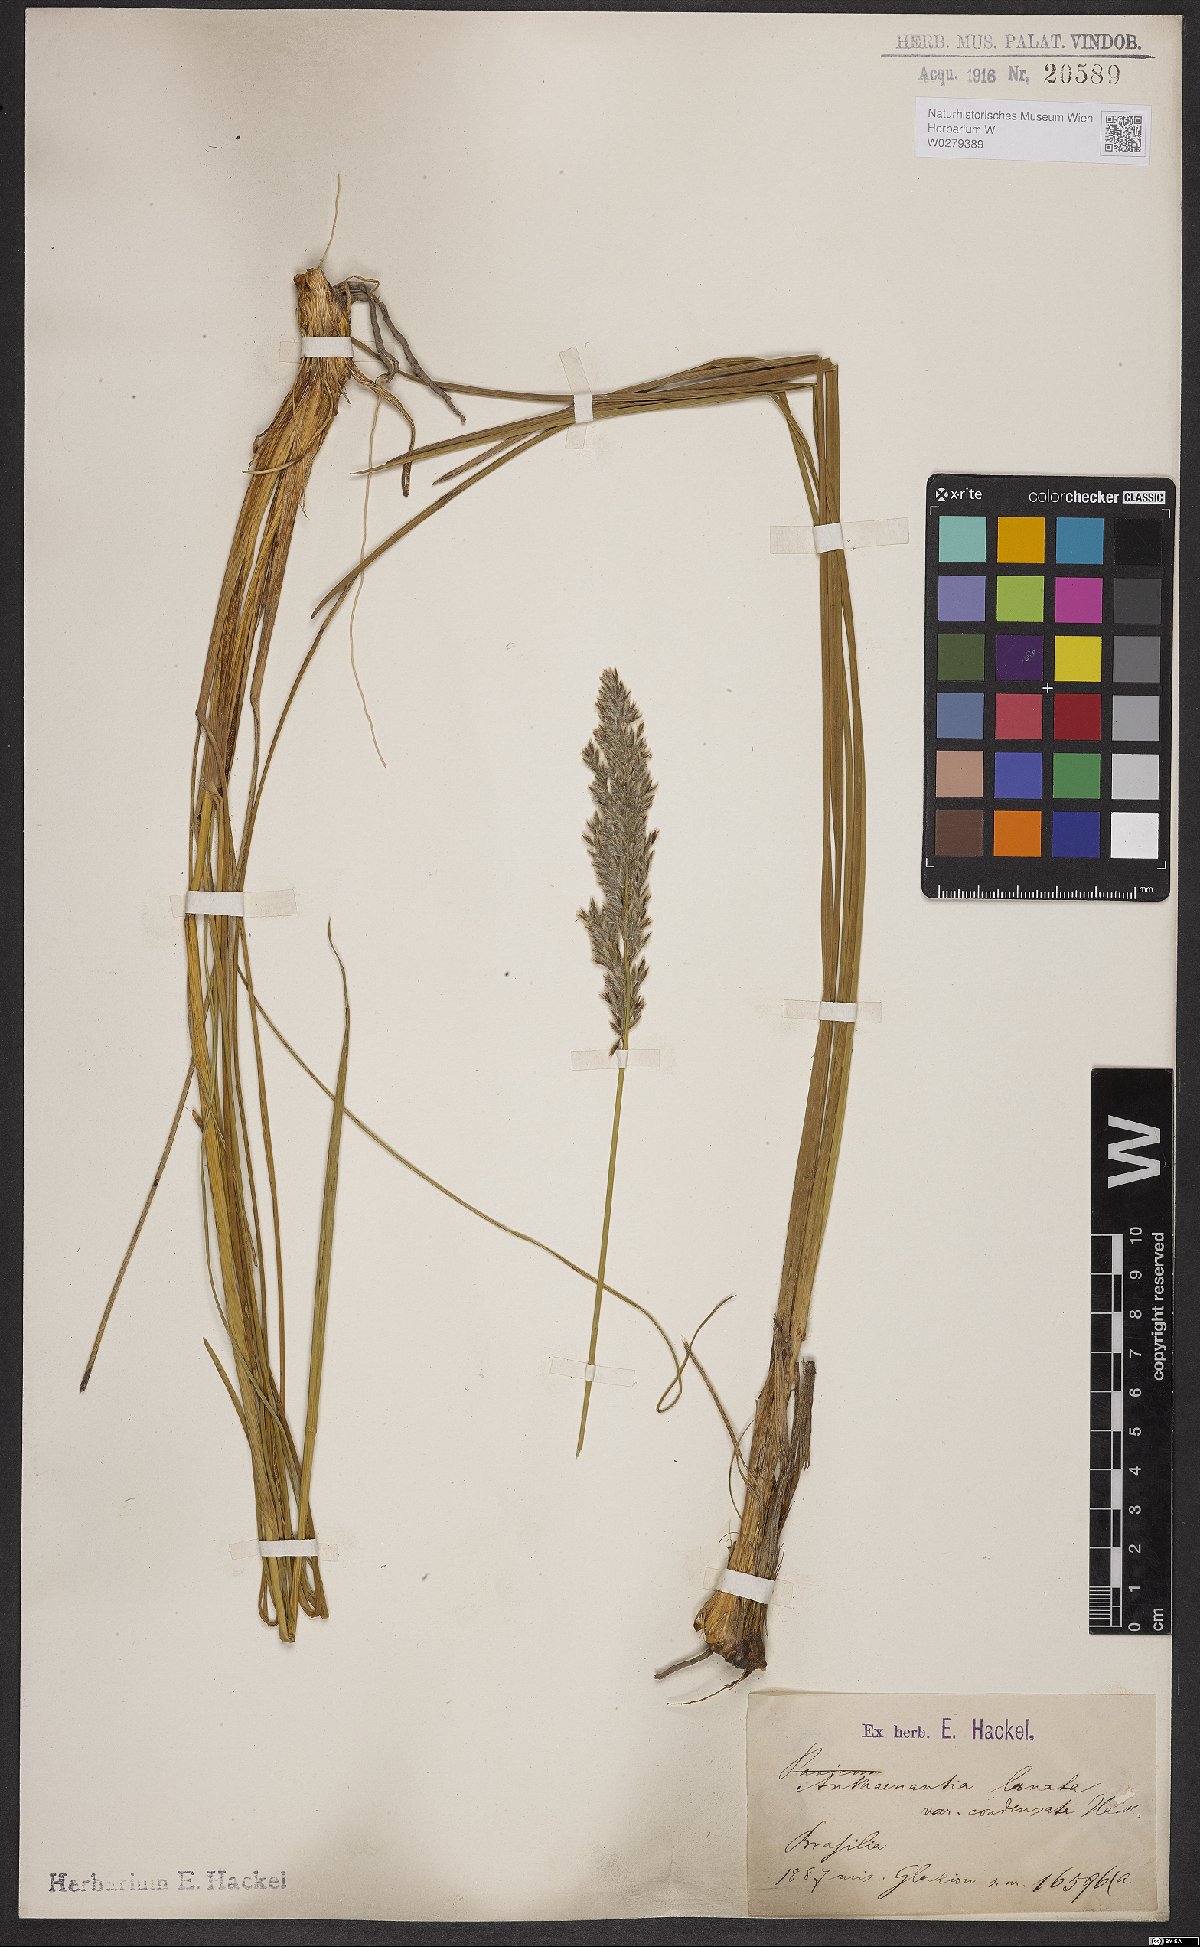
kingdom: Plantae
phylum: Tracheophyta
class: Liliopsida
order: Poales
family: Poaceae
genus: Anthaenantia
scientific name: Anthaenantia lanata
